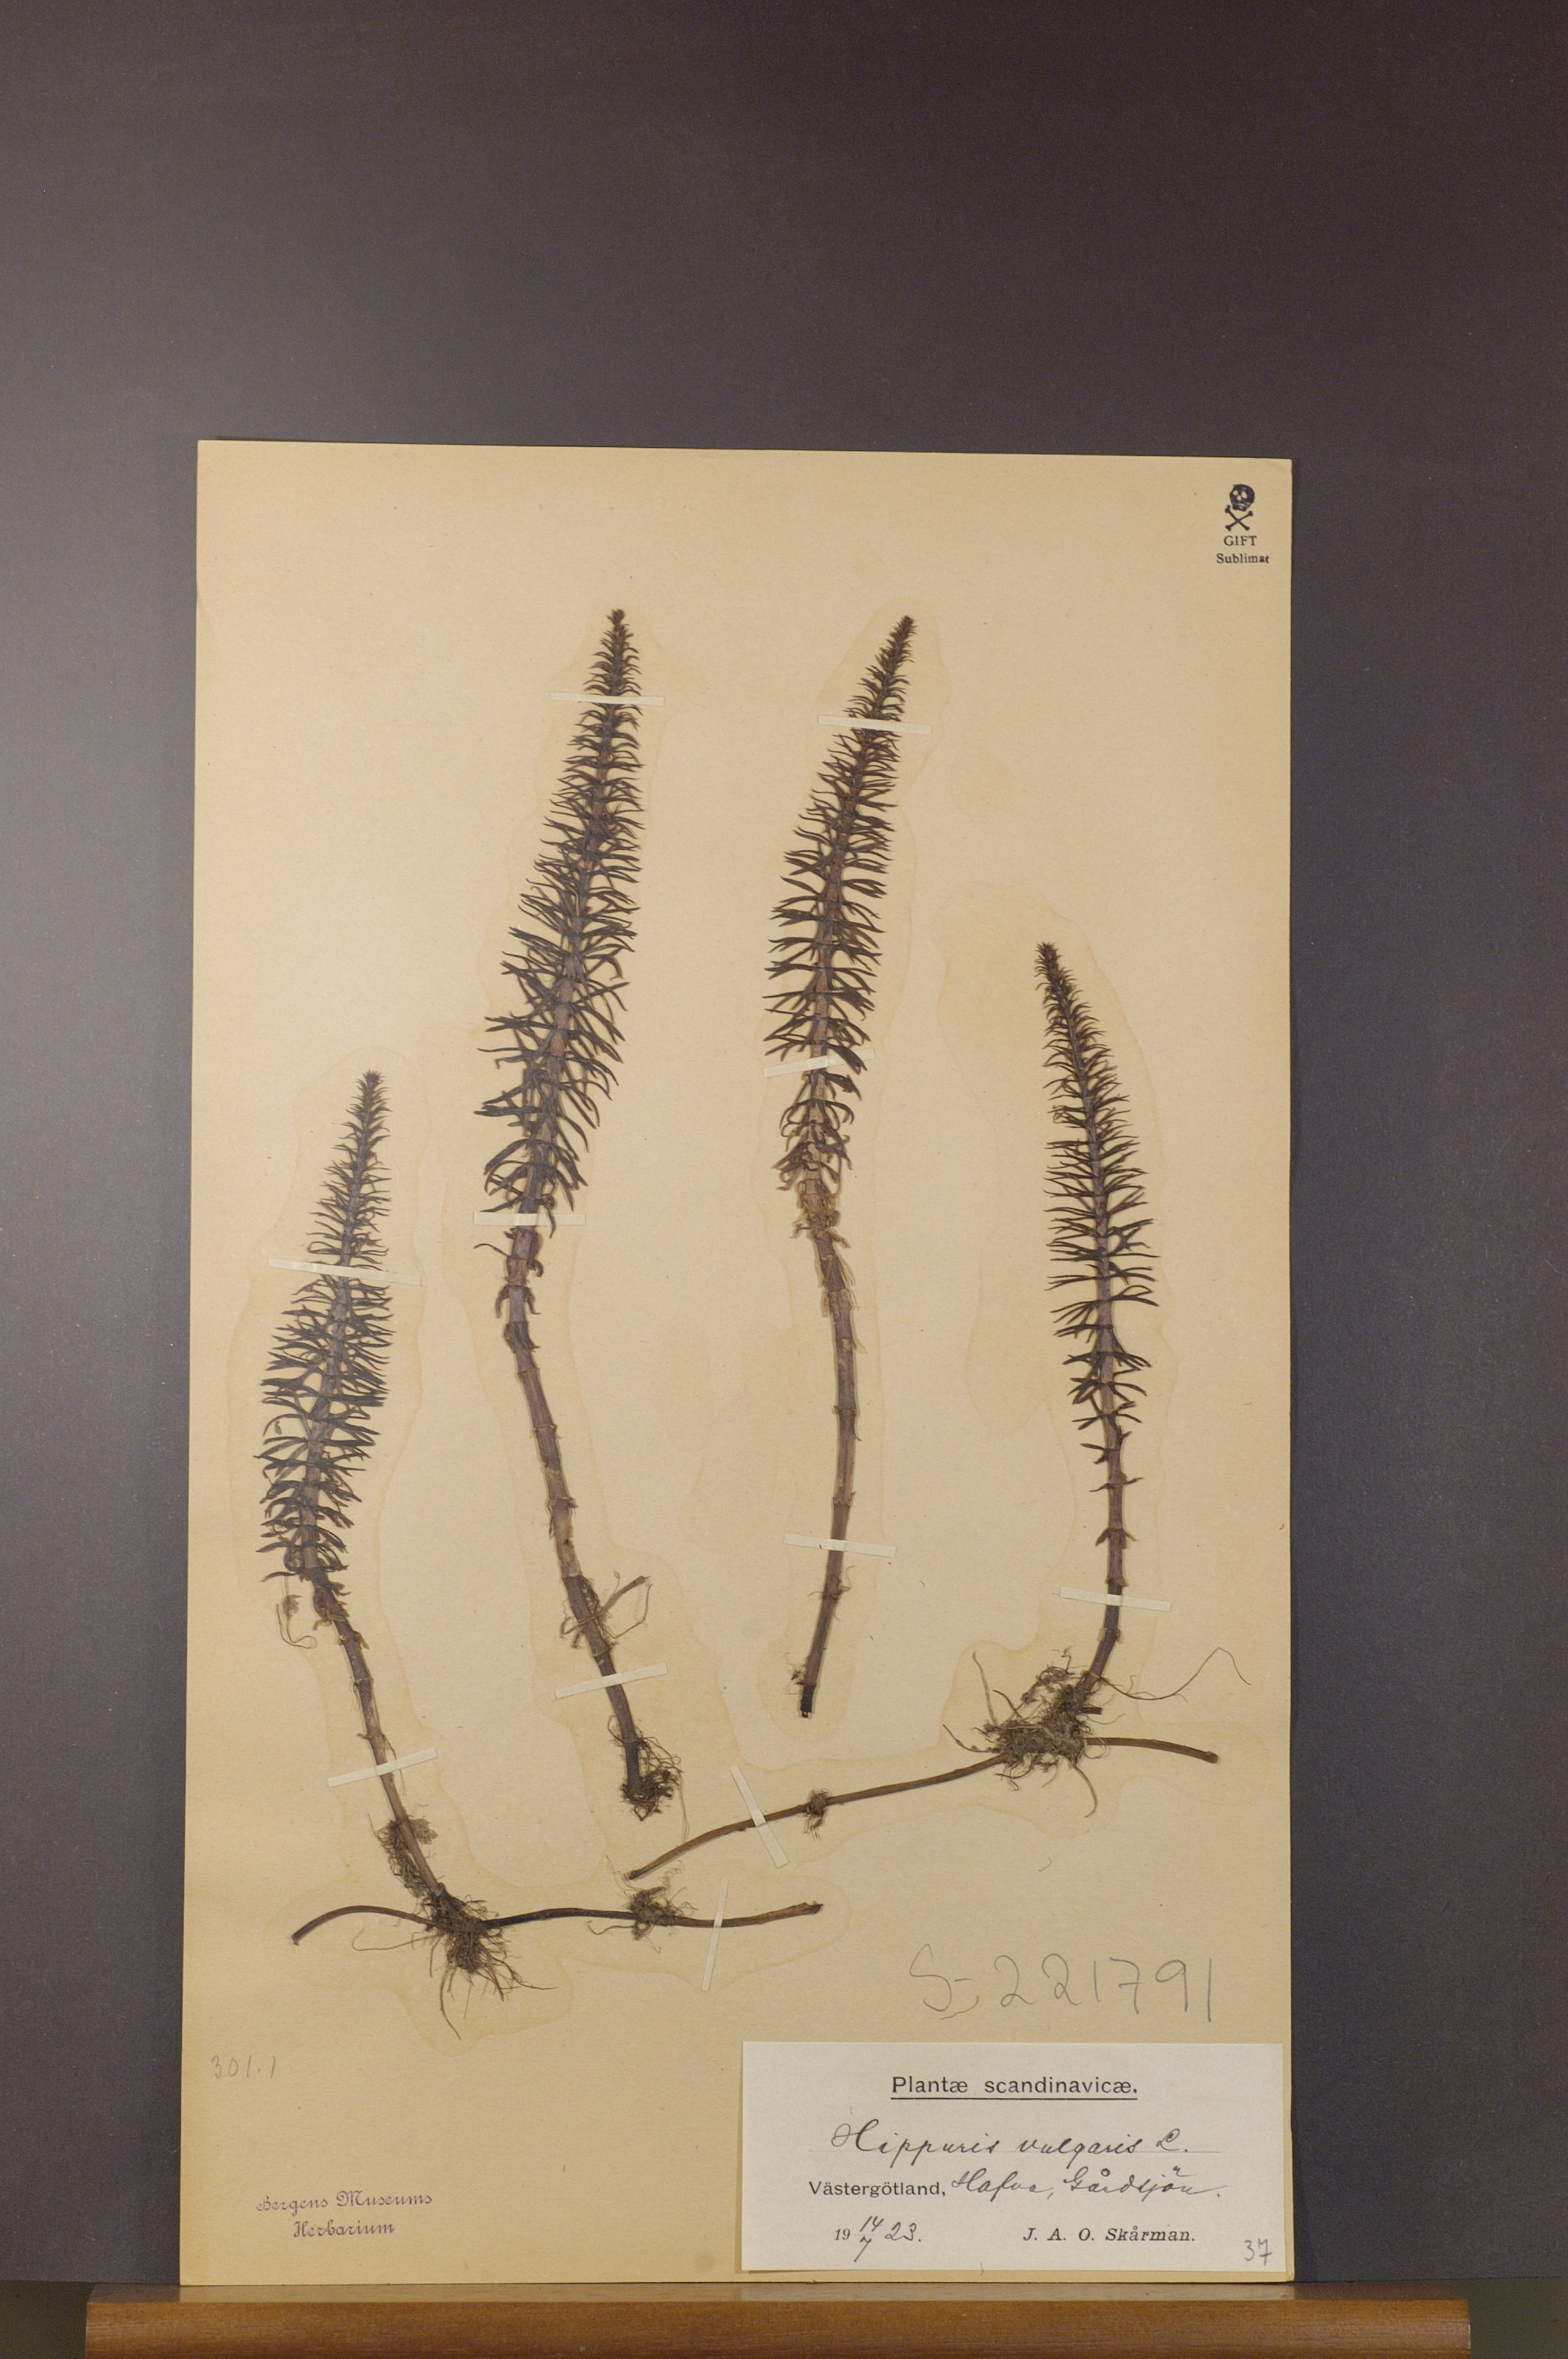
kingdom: Plantae
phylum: Tracheophyta
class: Magnoliopsida
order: Lamiales
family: Plantaginaceae
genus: Hippuris
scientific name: Hippuris vulgaris
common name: Mare's-tail
